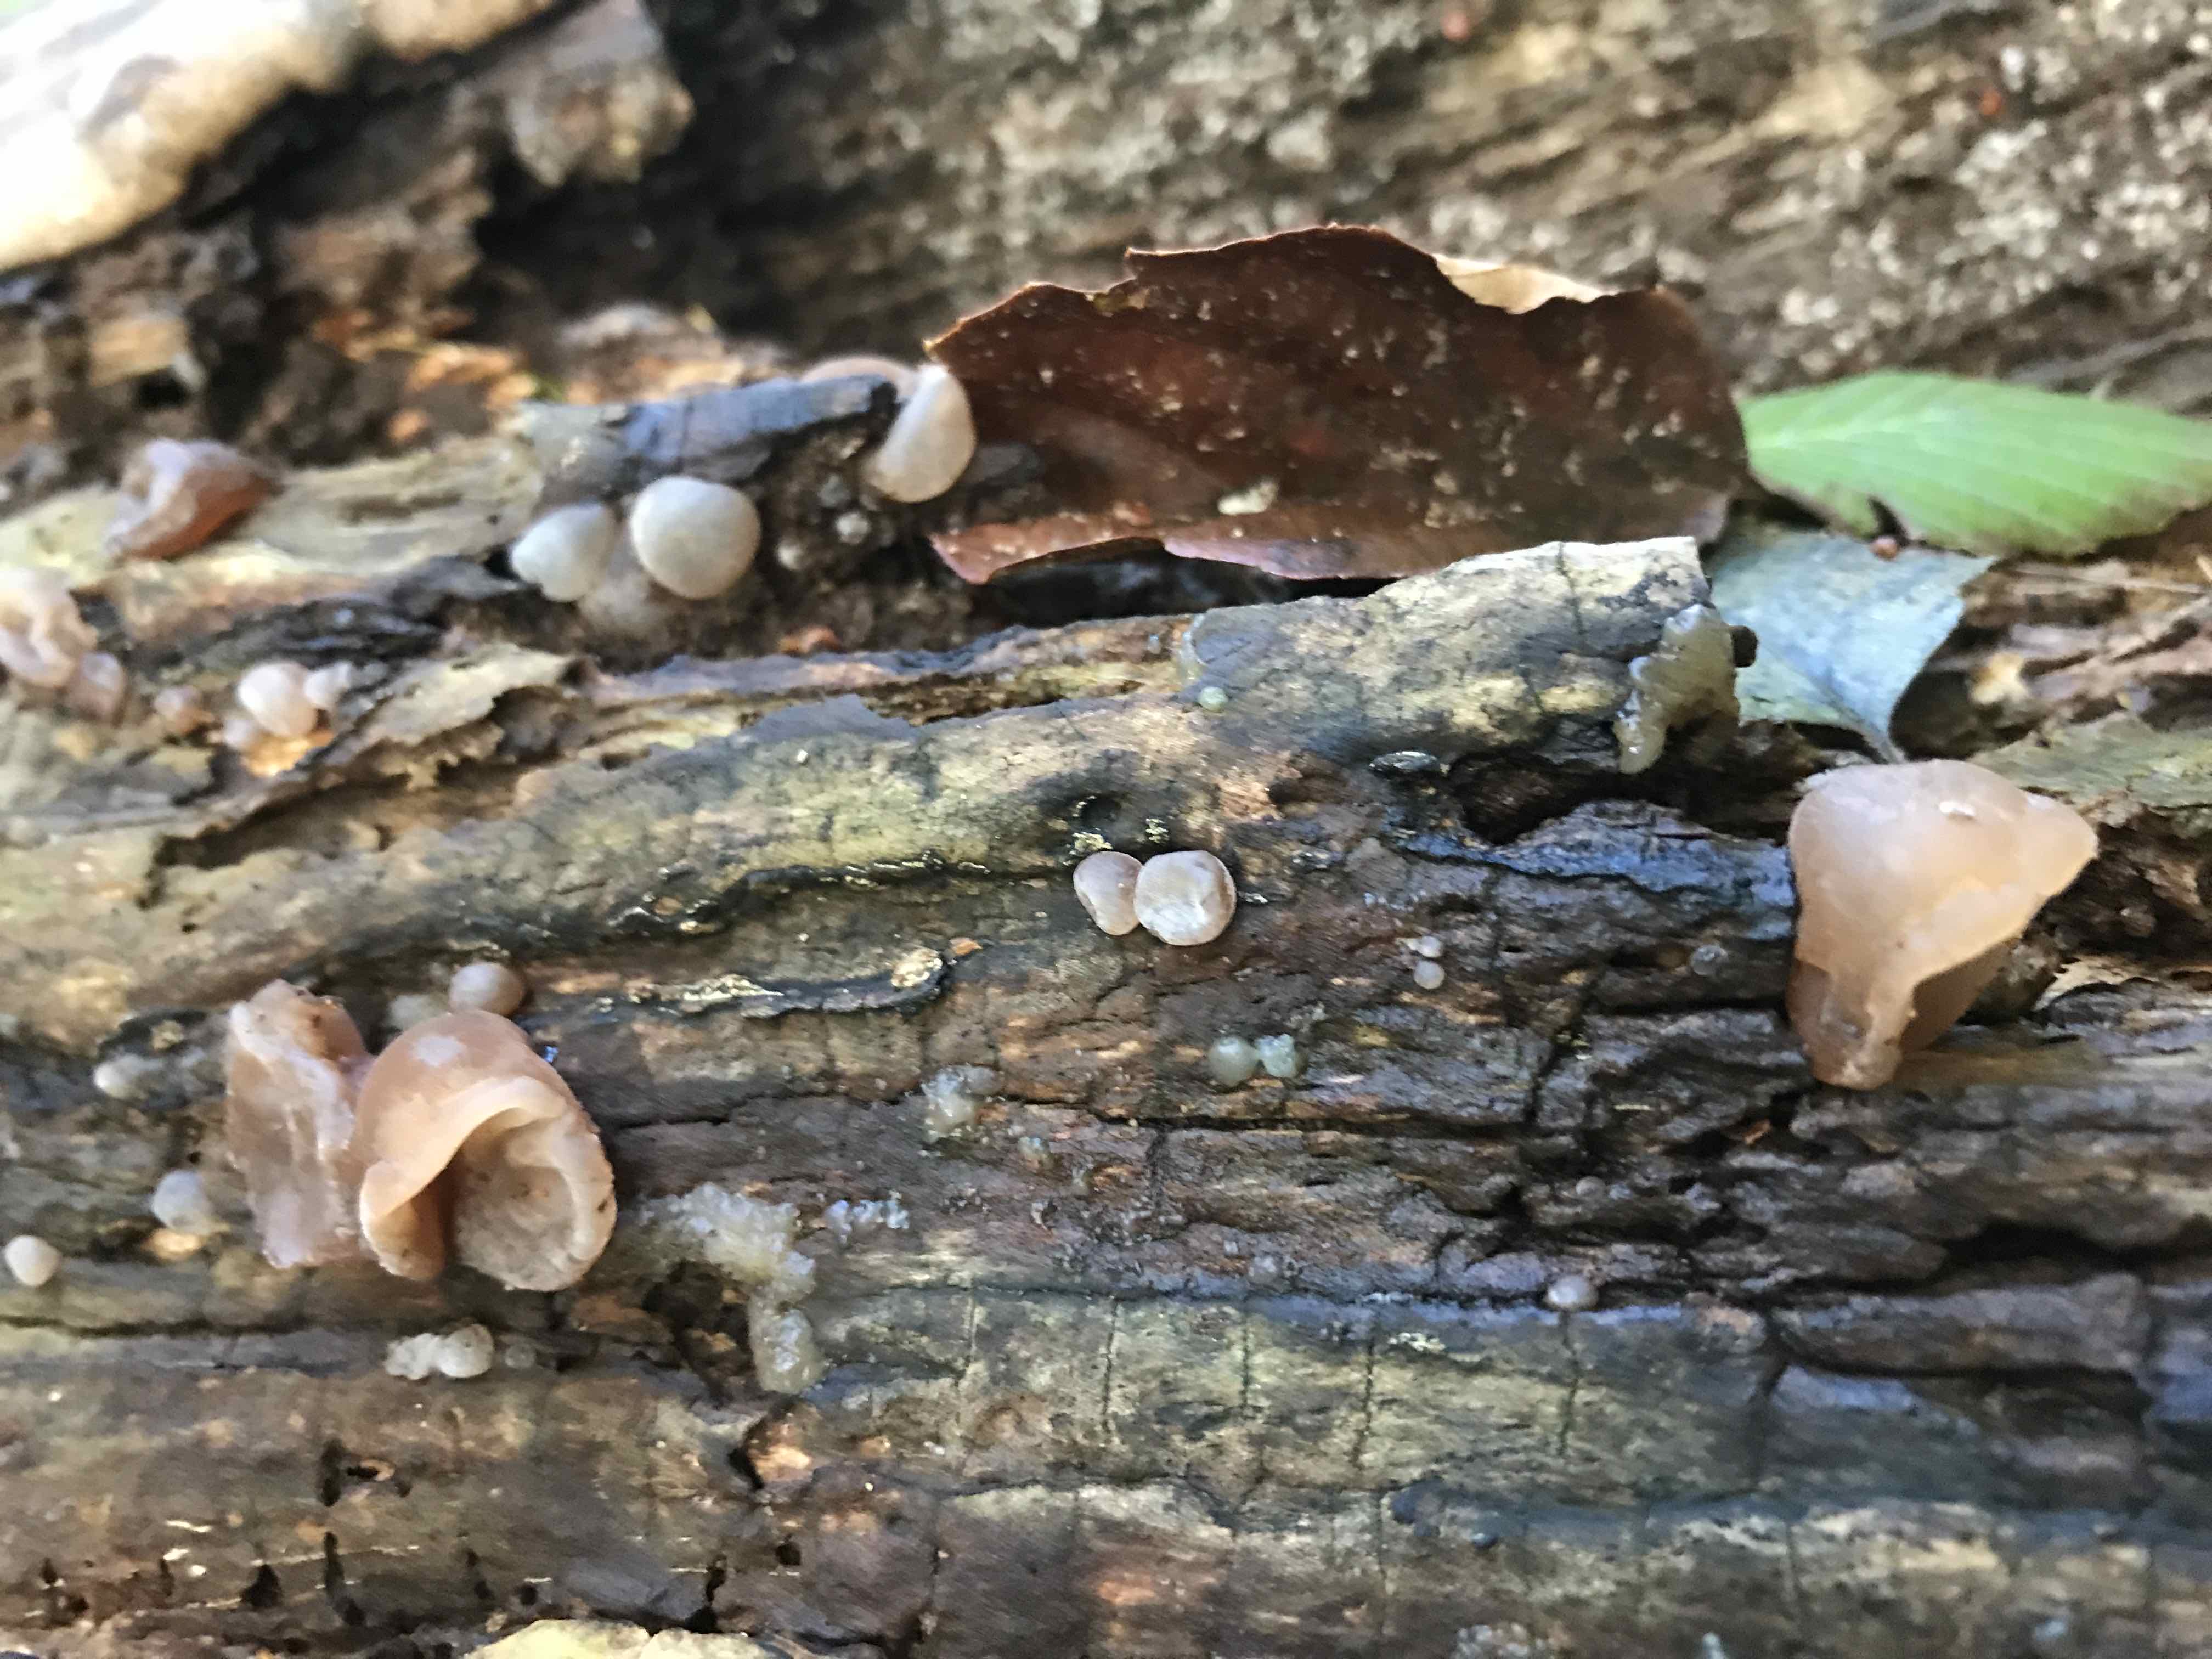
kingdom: Fungi
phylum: Basidiomycota
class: Agaricomycetes
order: Auriculariales
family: Auriculariaceae
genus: Auricularia
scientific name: Auricularia auricula-judae
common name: almindelig judasøre
